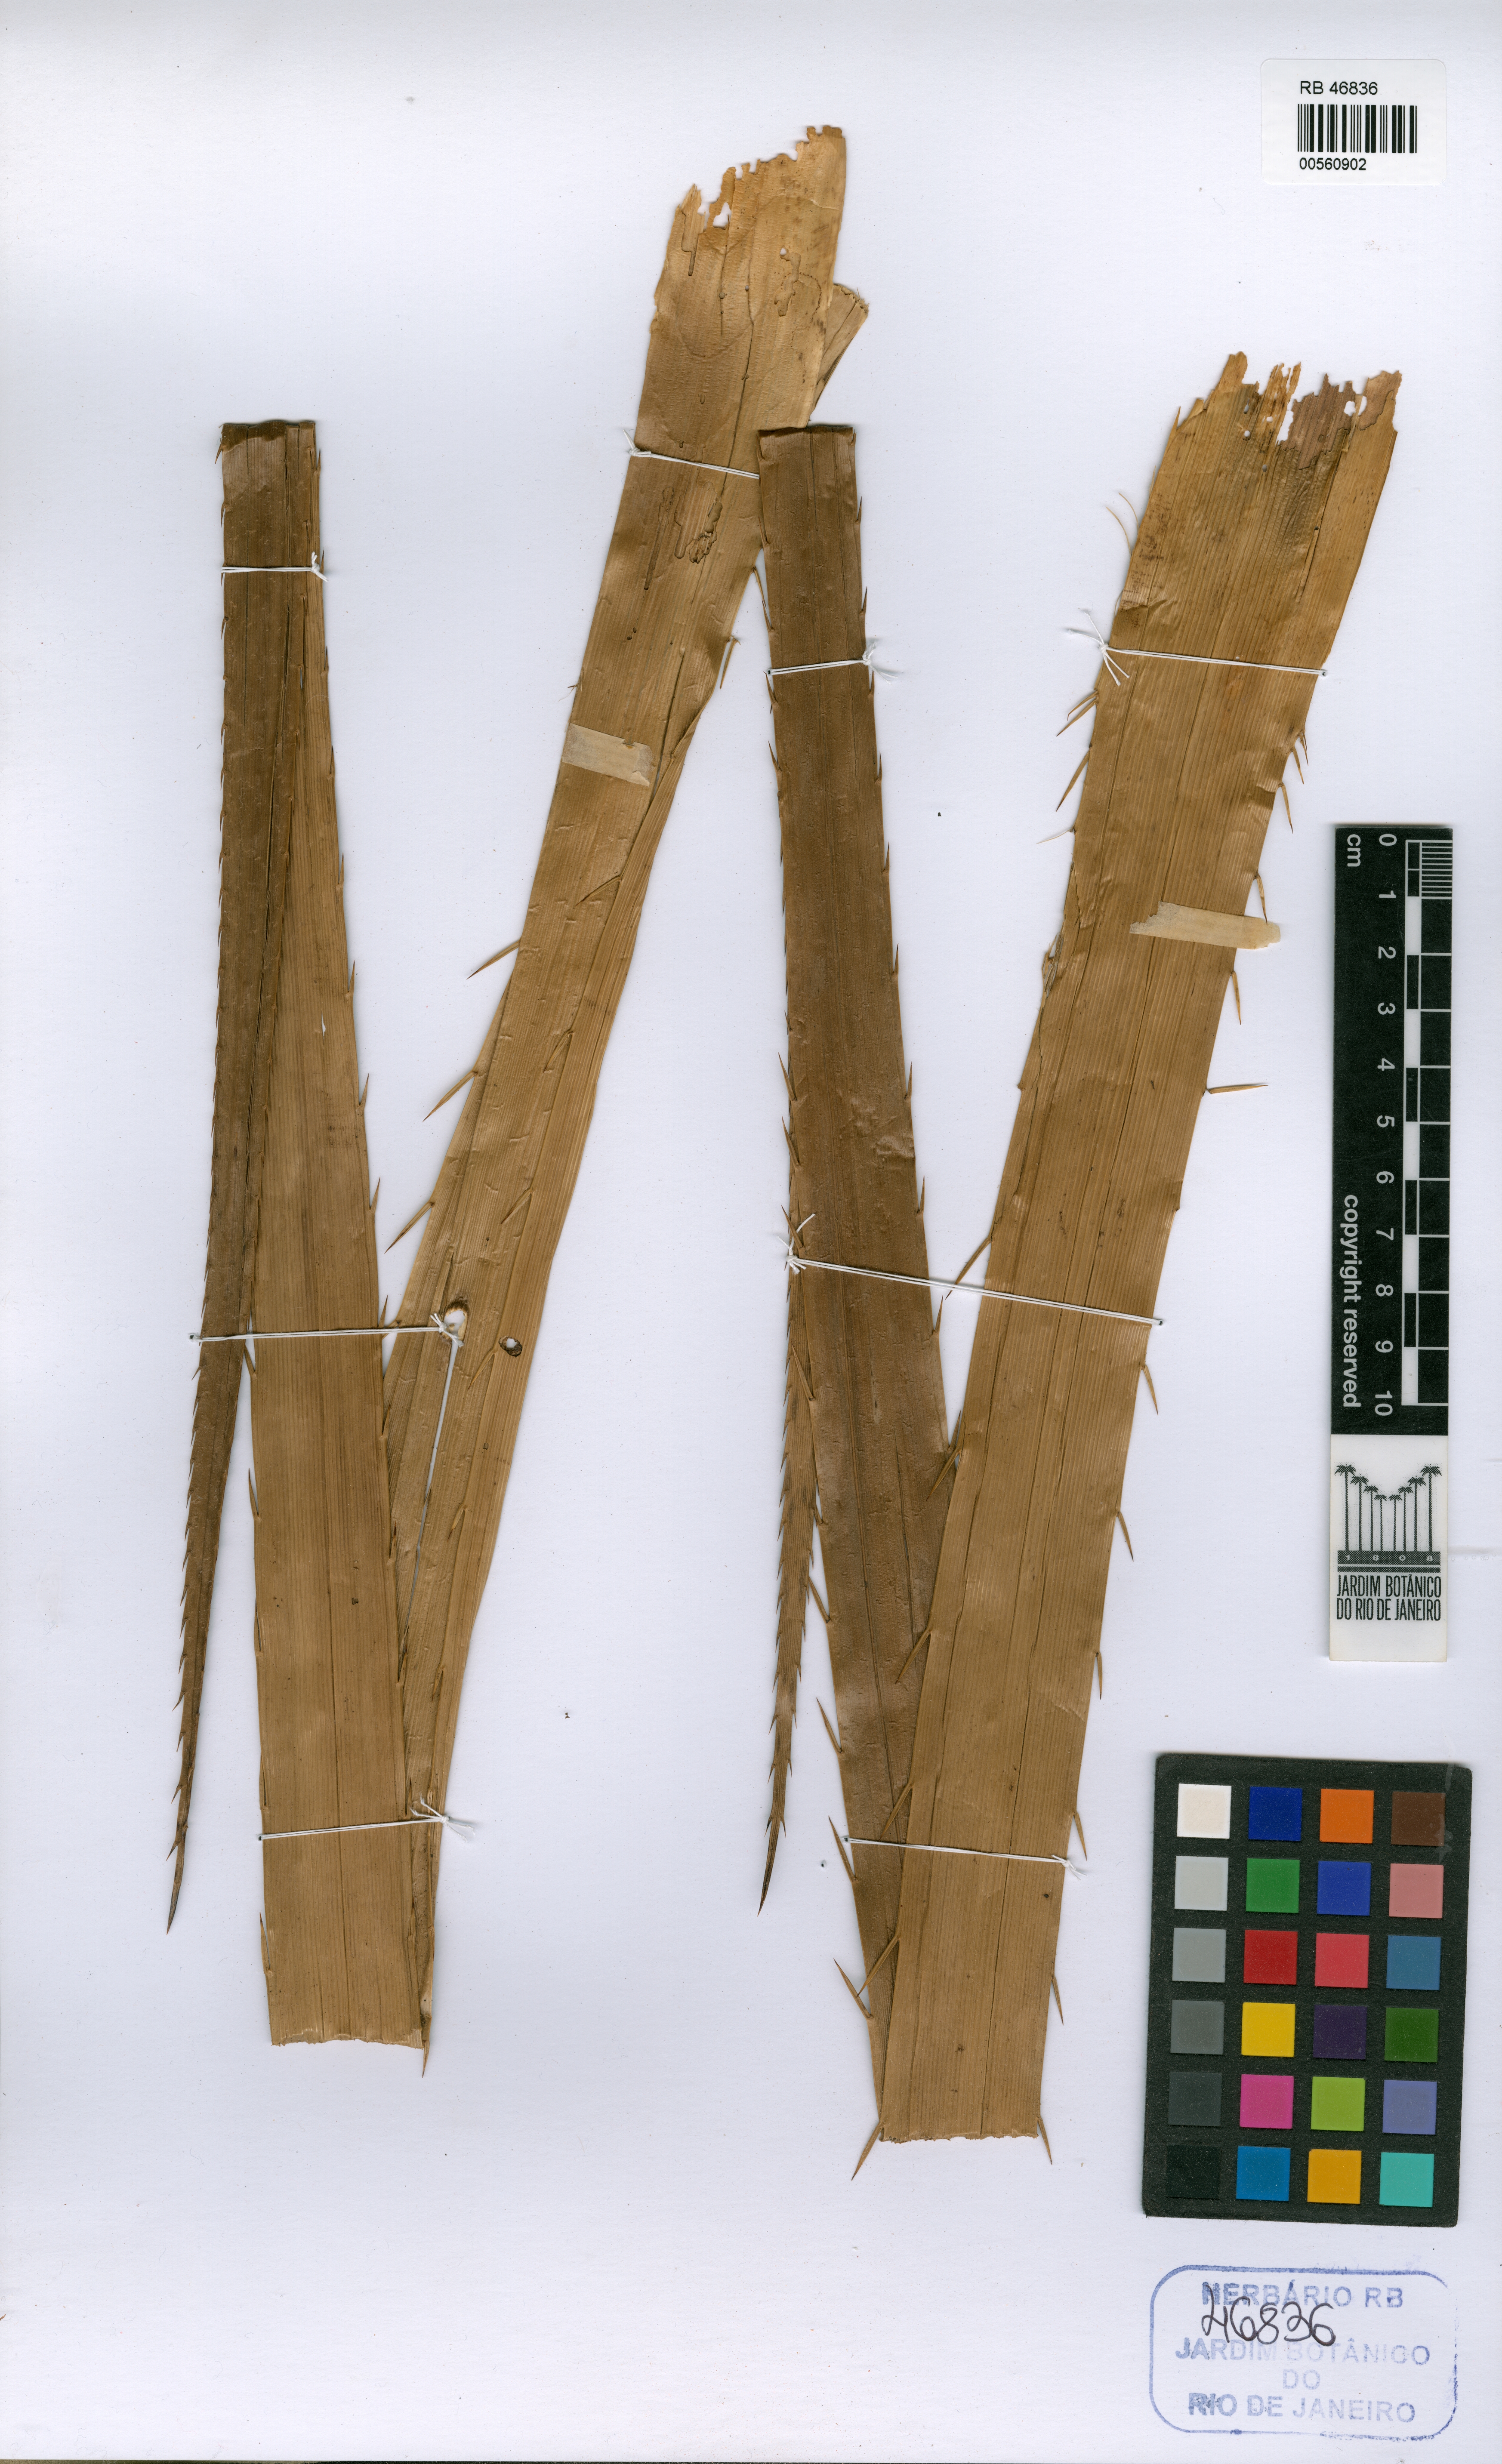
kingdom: Plantae
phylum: Tracheophyta
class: Magnoliopsida
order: Apiales
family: Apiaceae
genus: Eryngium
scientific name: Eryngium horridum
